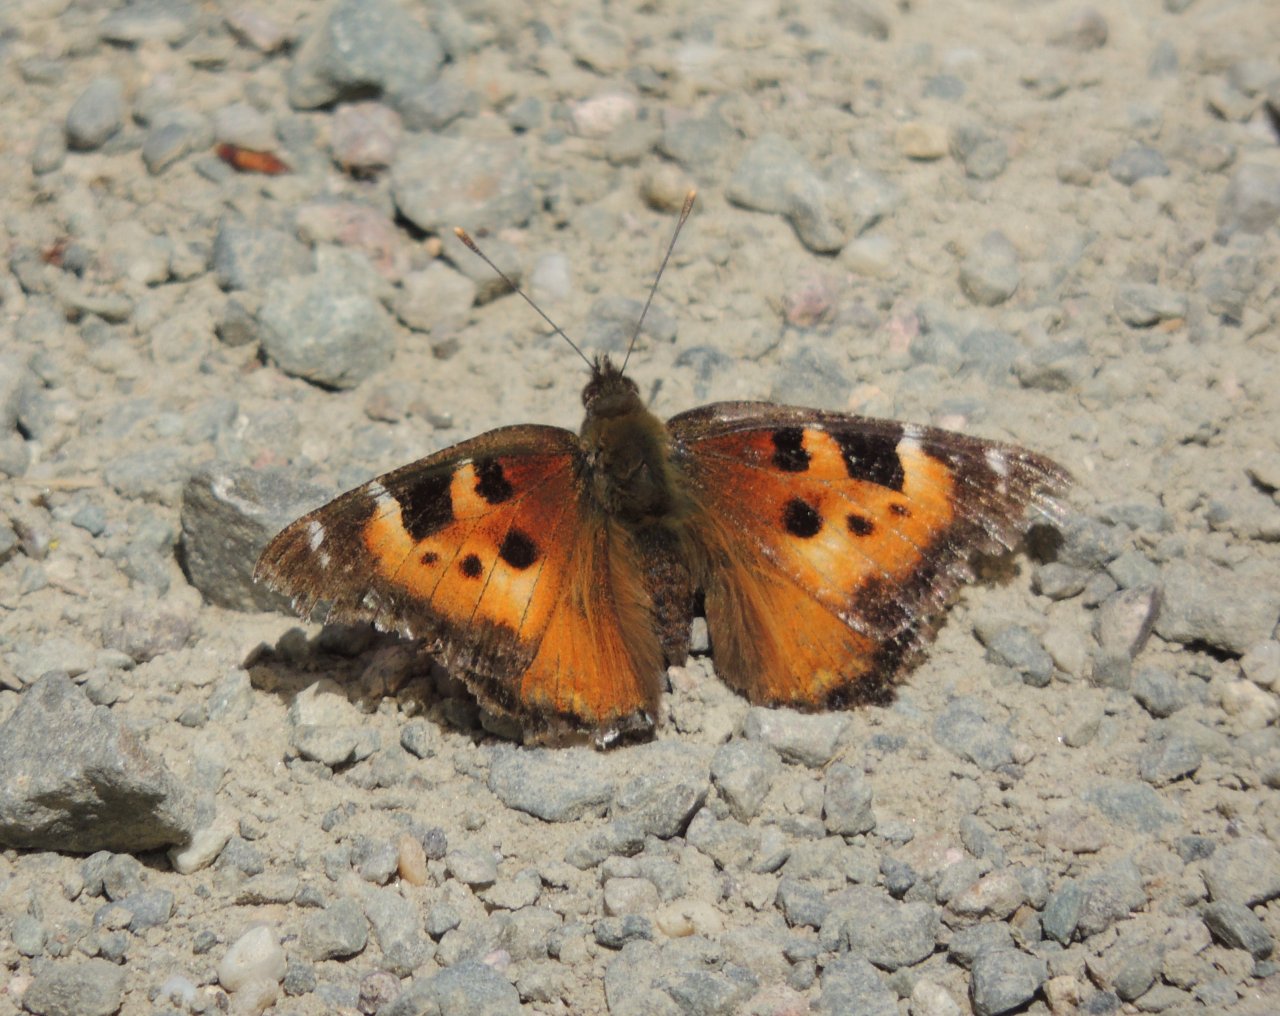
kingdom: Animalia
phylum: Arthropoda
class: Insecta
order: Lepidoptera
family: Nymphalidae
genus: Nymphalis
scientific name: Nymphalis californica
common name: California Tortoiseshell
